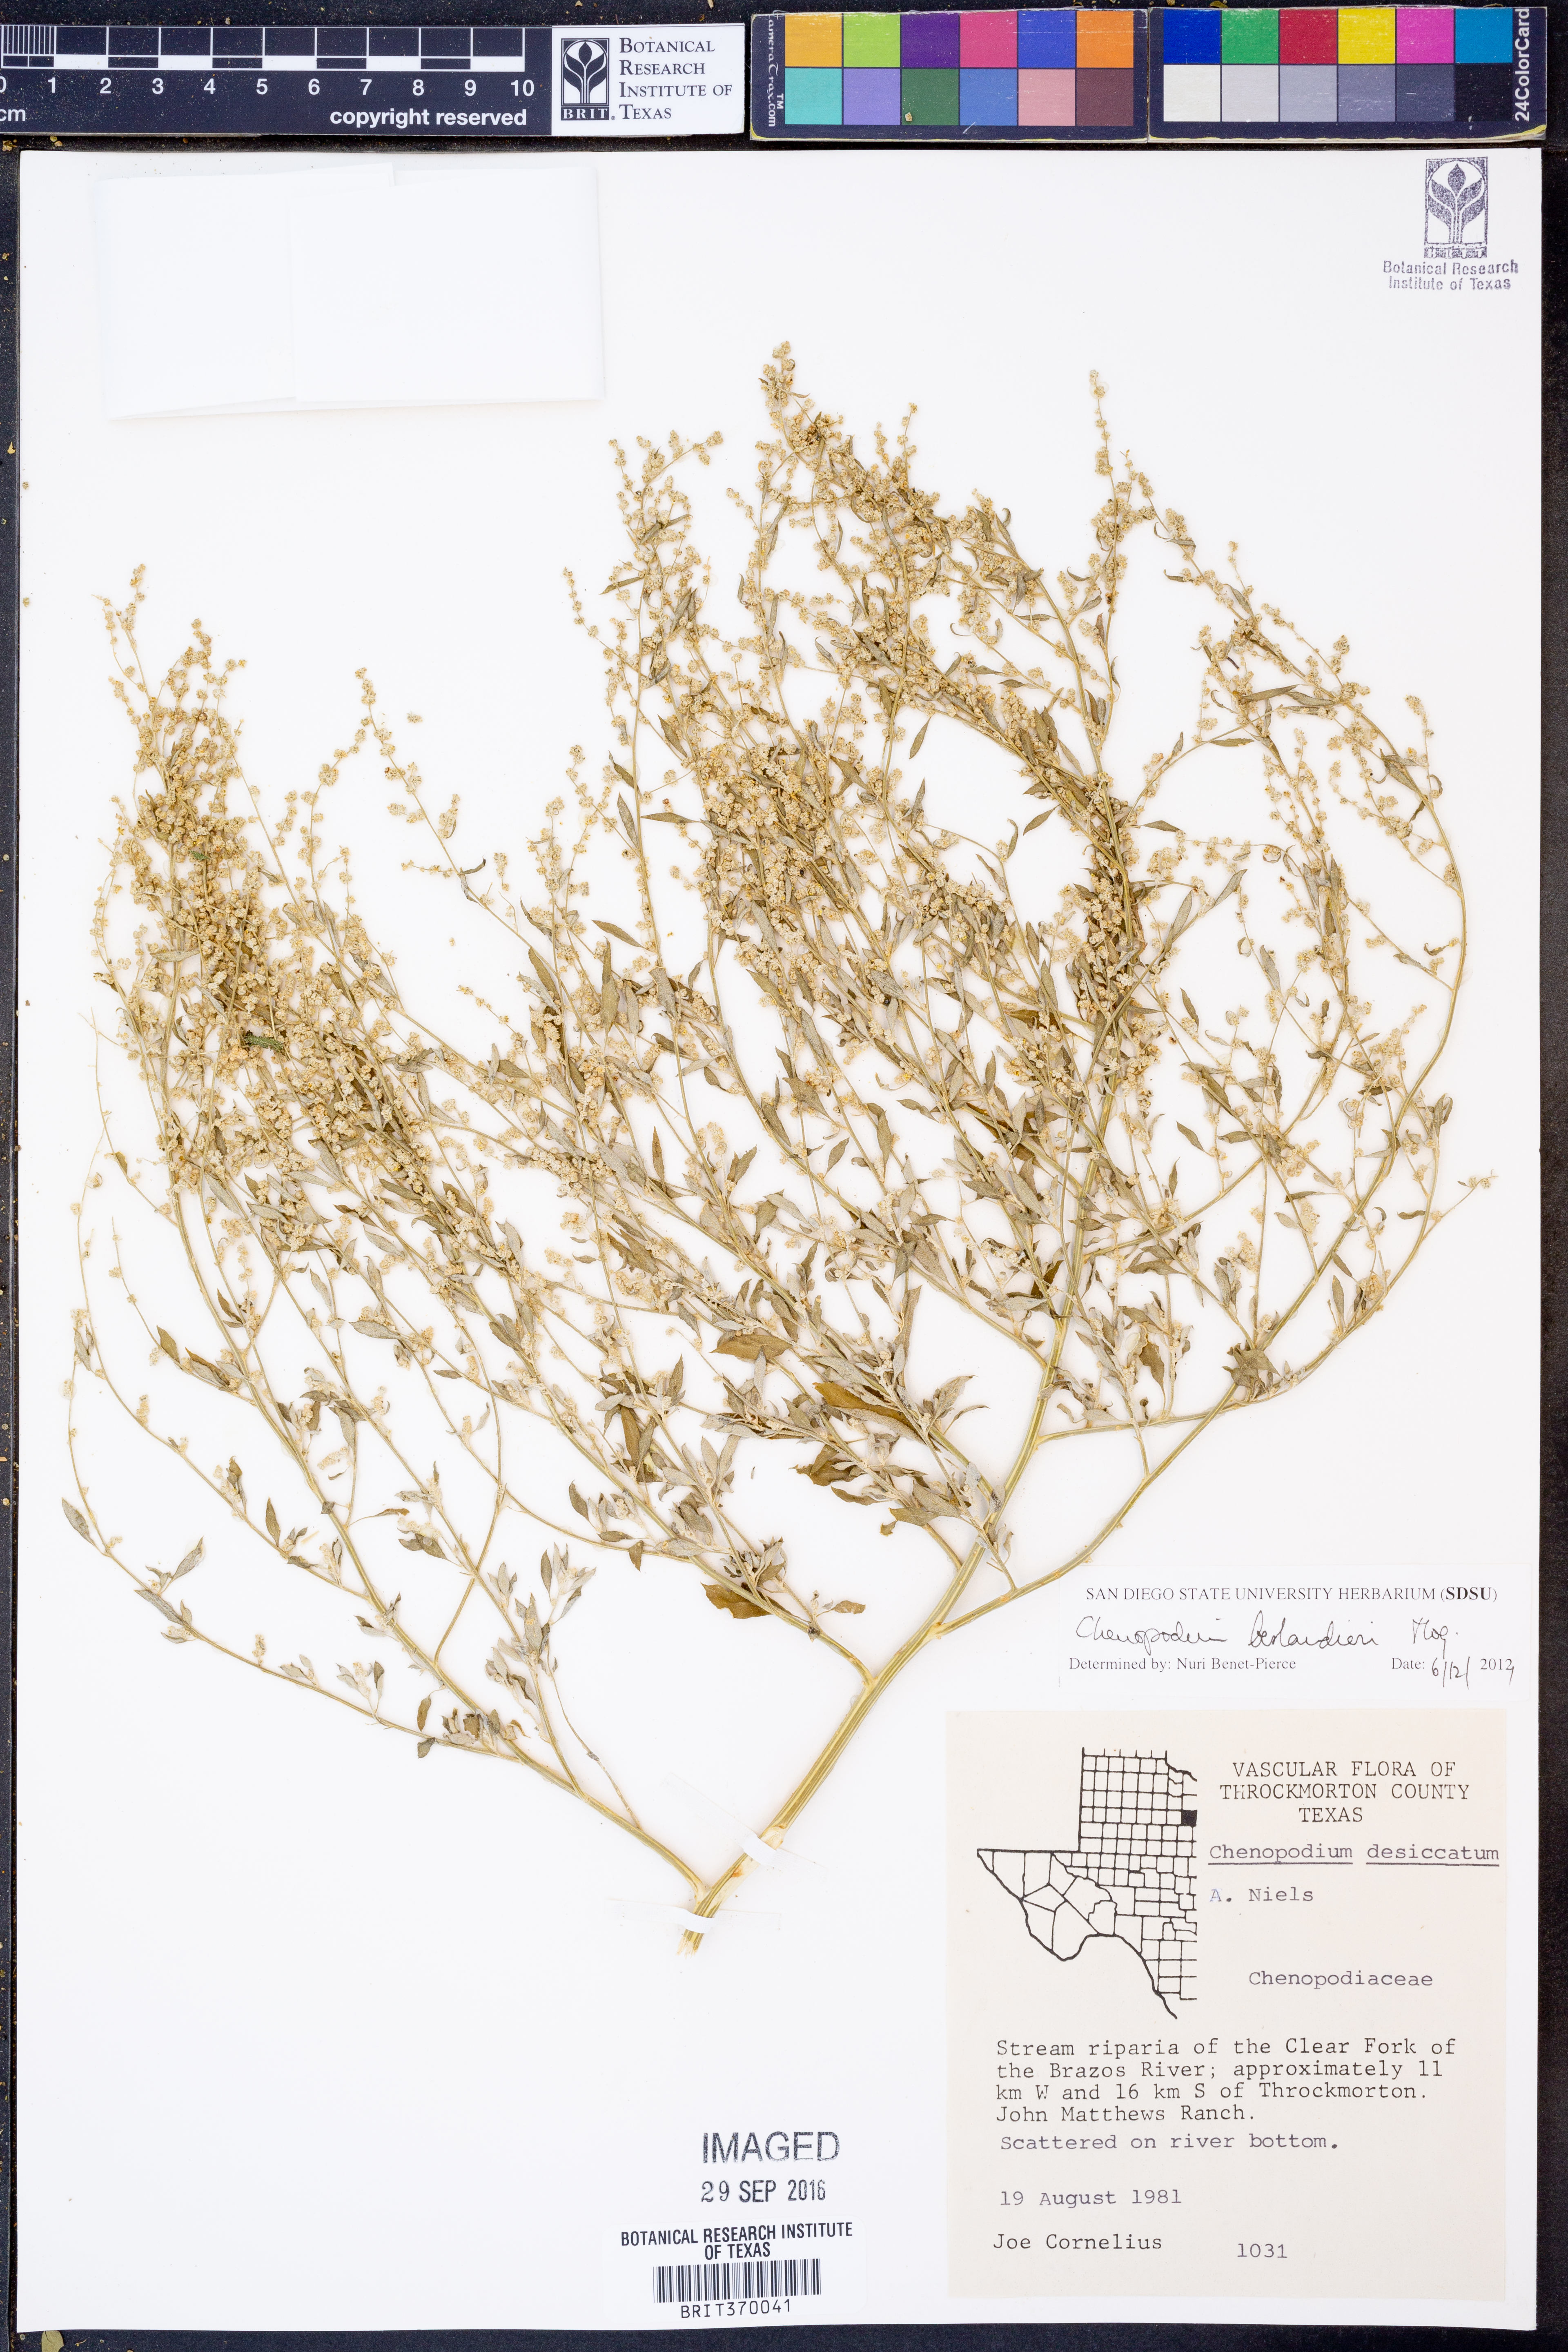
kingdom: Plantae
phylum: Tracheophyta
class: Magnoliopsida
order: Caryophyllales
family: Amaranthaceae
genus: Chenopodium
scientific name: Chenopodium berlandieri
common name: Pit-seed goosefoot
